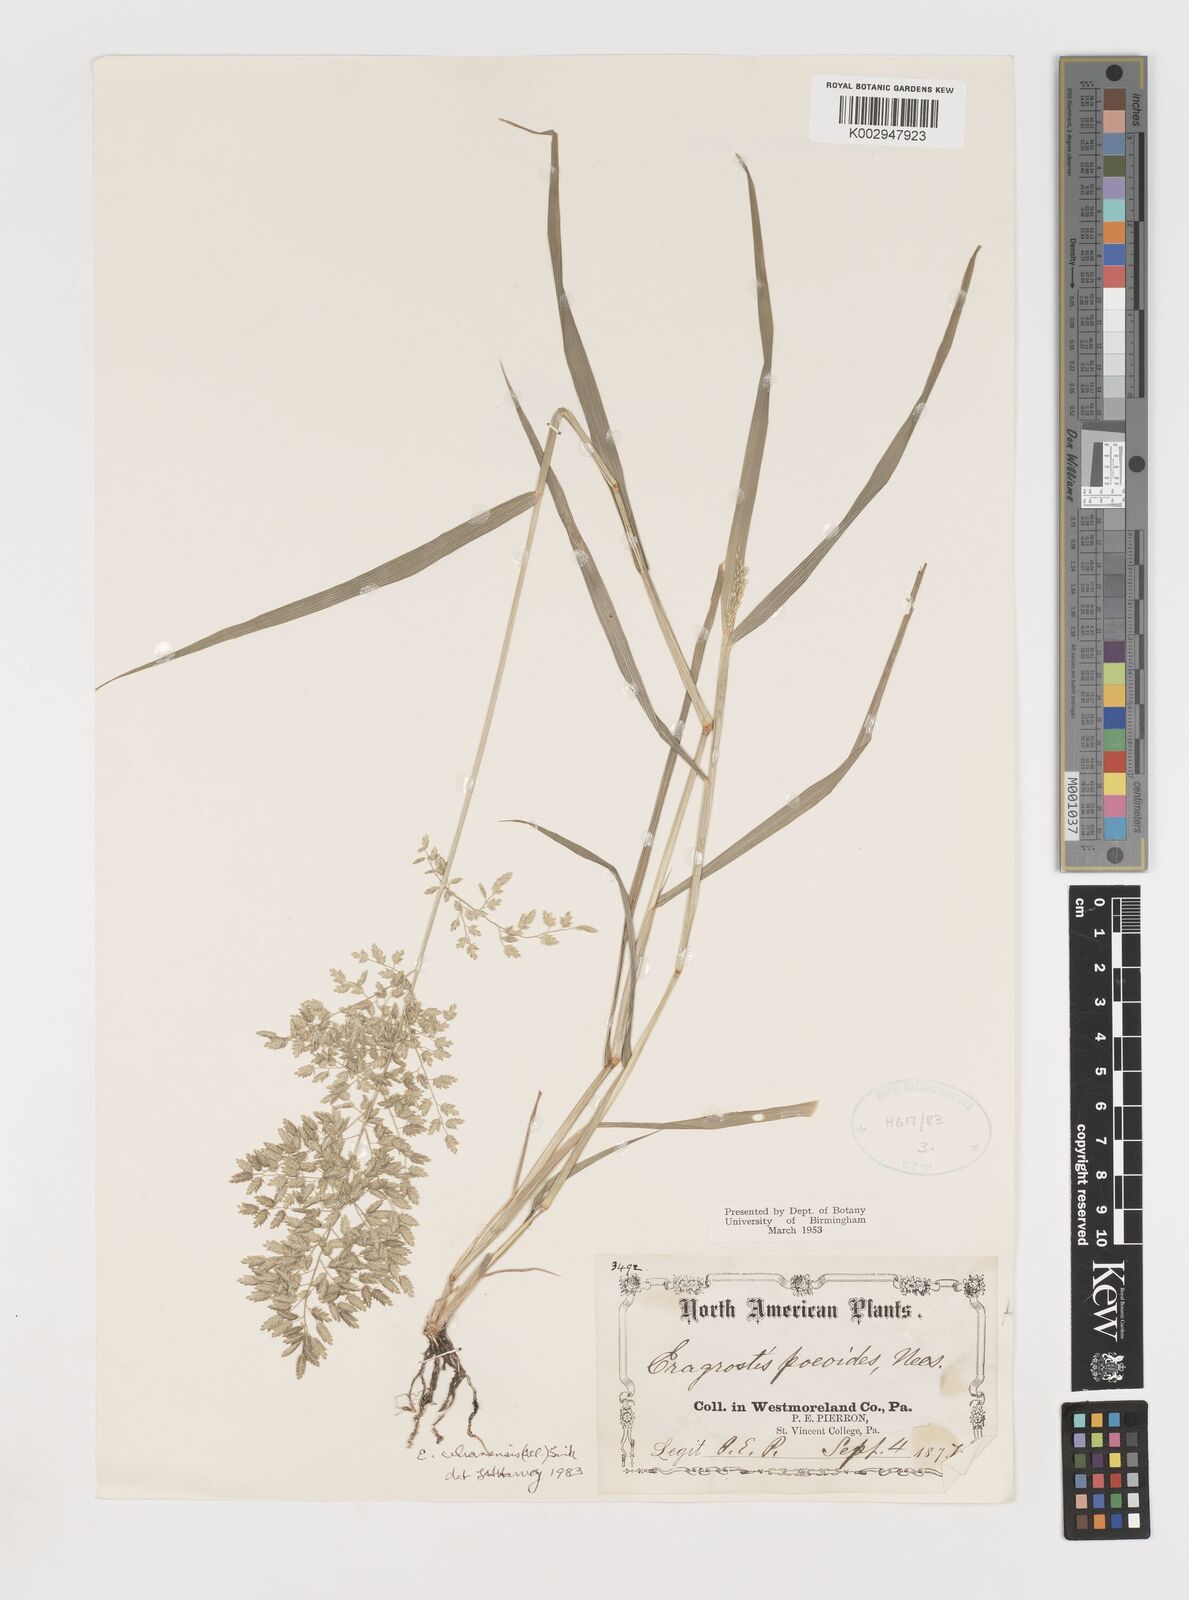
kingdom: Plantae
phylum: Tracheophyta
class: Liliopsida
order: Poales
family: Poaceae
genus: Eragrostis
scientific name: Eragrostis
